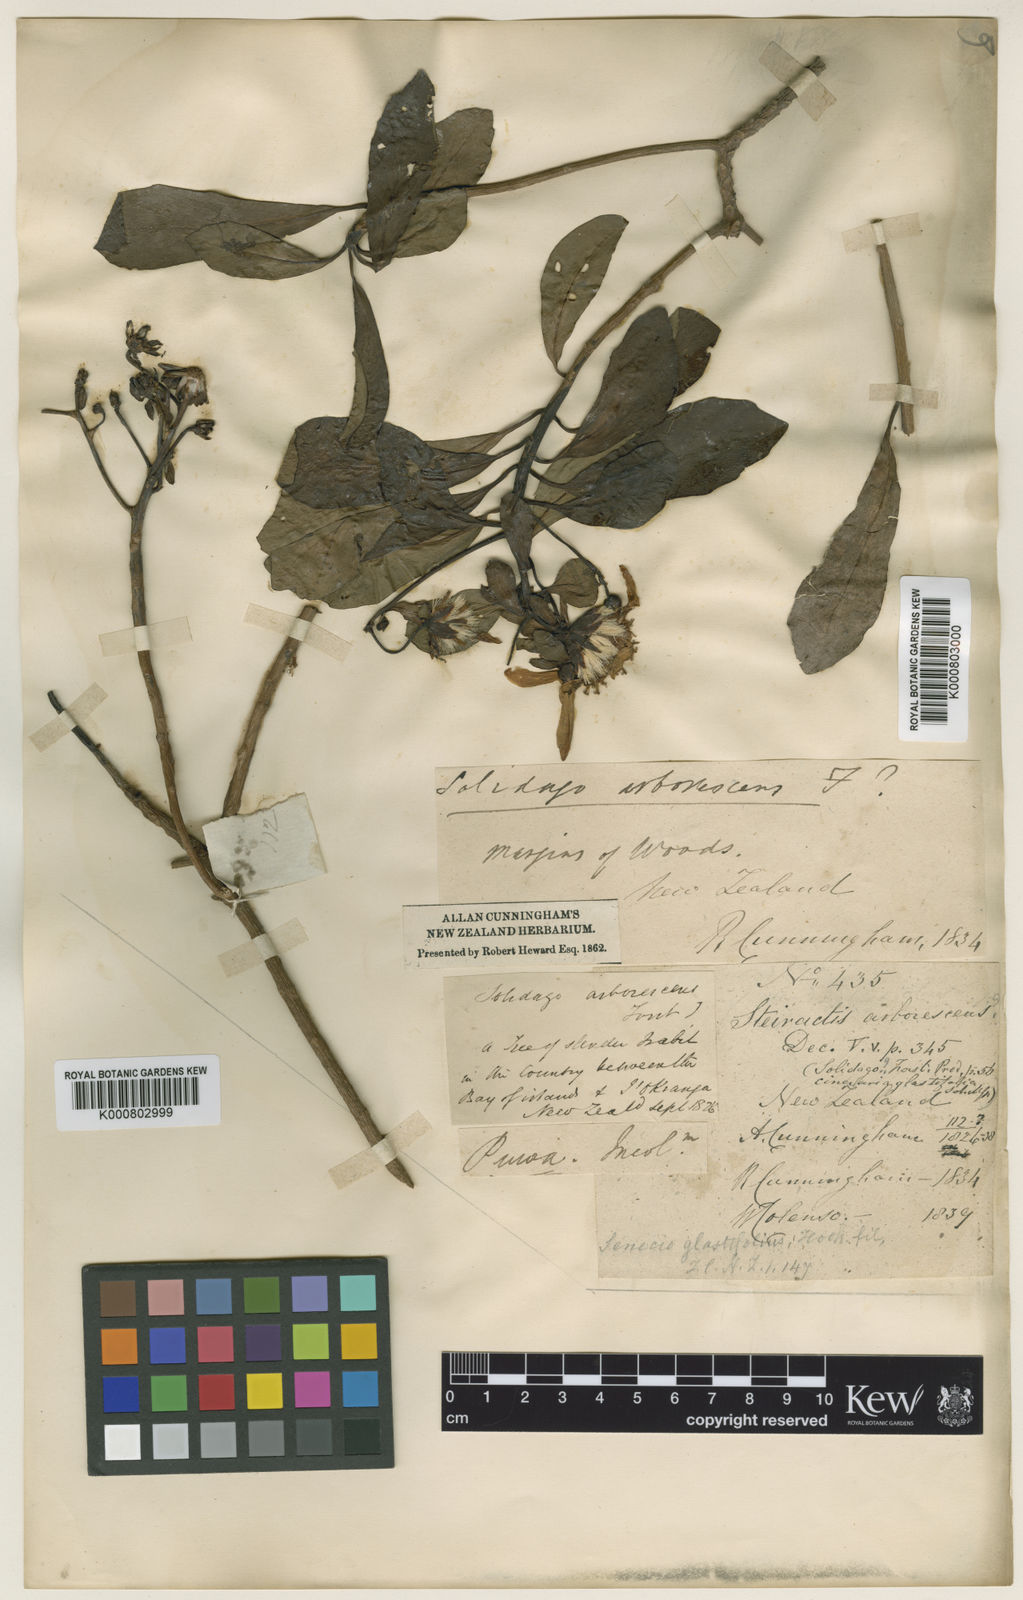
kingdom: Plantae
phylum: Tracheophyta
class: Magnoliopsida
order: Asterales
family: Asteraceae
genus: Brachyglottis
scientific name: Brachyglottis kirkii
